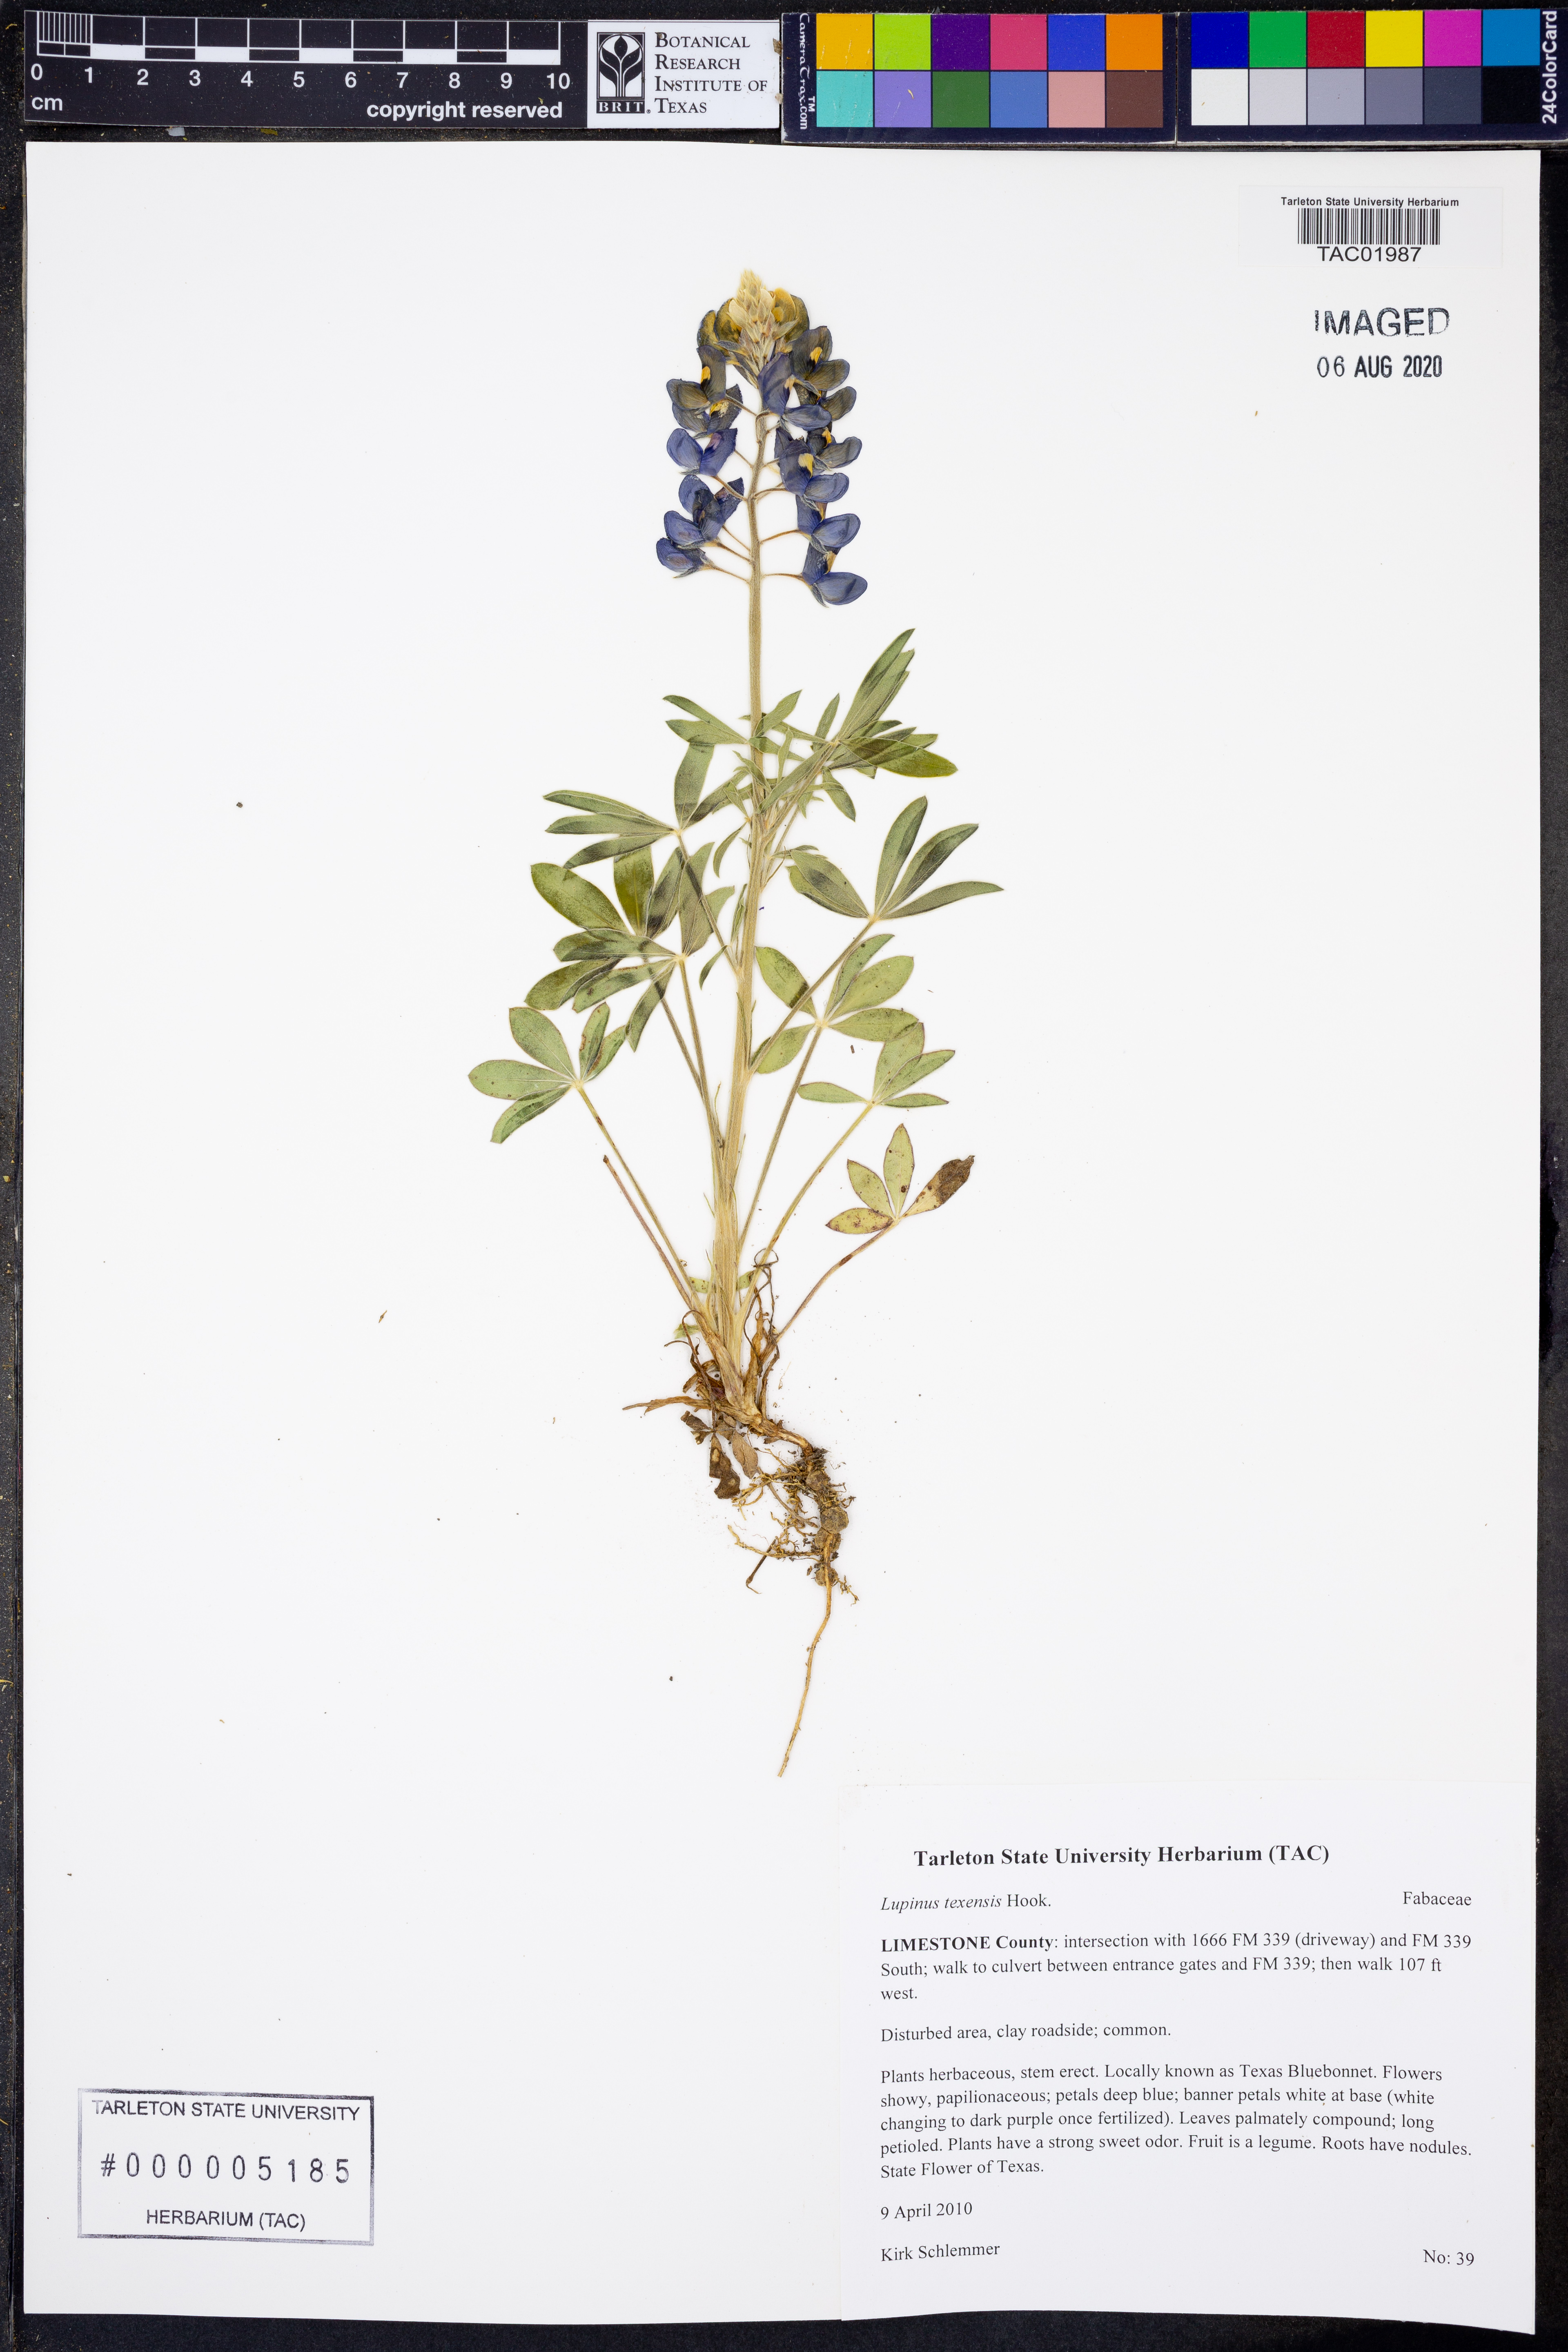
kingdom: Plantae
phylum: Tracheophyta
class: Magnoliopsida
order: Fabales
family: Fabaceae
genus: Lupinus
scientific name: Lupinus texensis
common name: Texas bluebonnet
